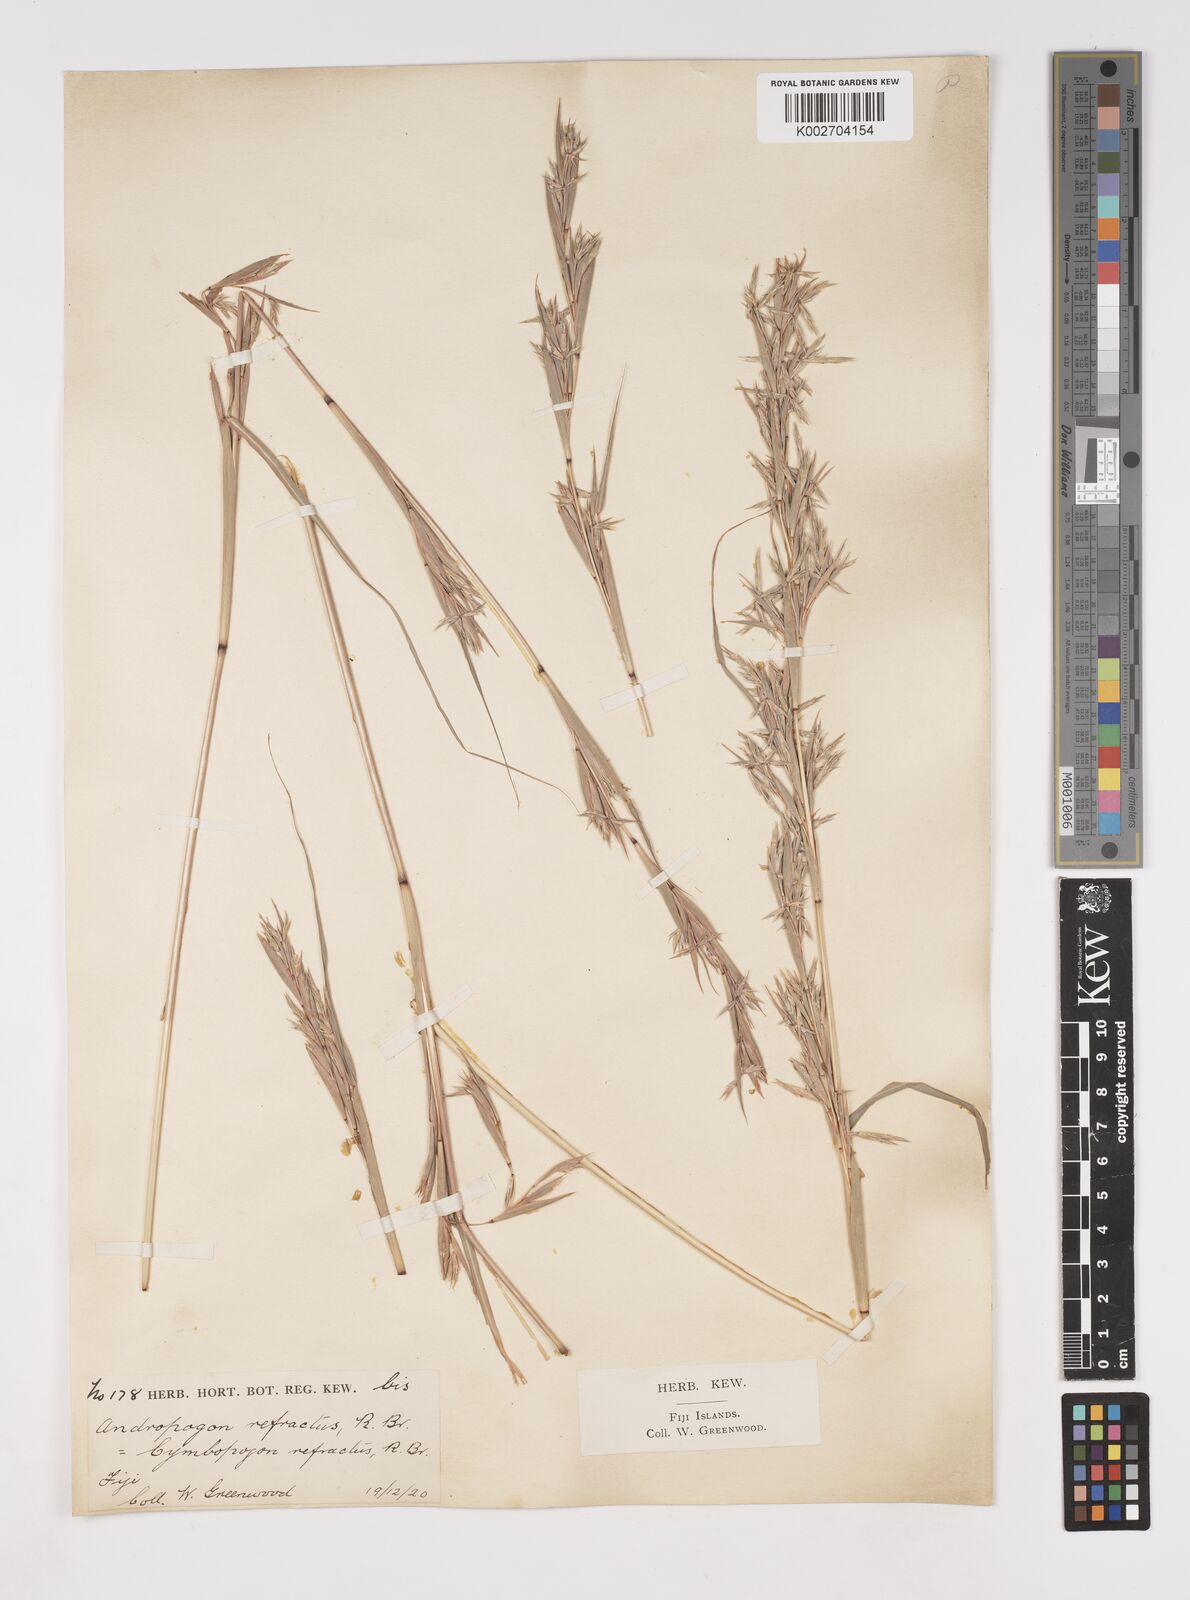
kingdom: Plantae
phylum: Tracheophyta
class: Liliopsida
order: Poales
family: Poaceae
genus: Cymbopogon
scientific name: Cymbopogon refractus
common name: Barbwire grass
